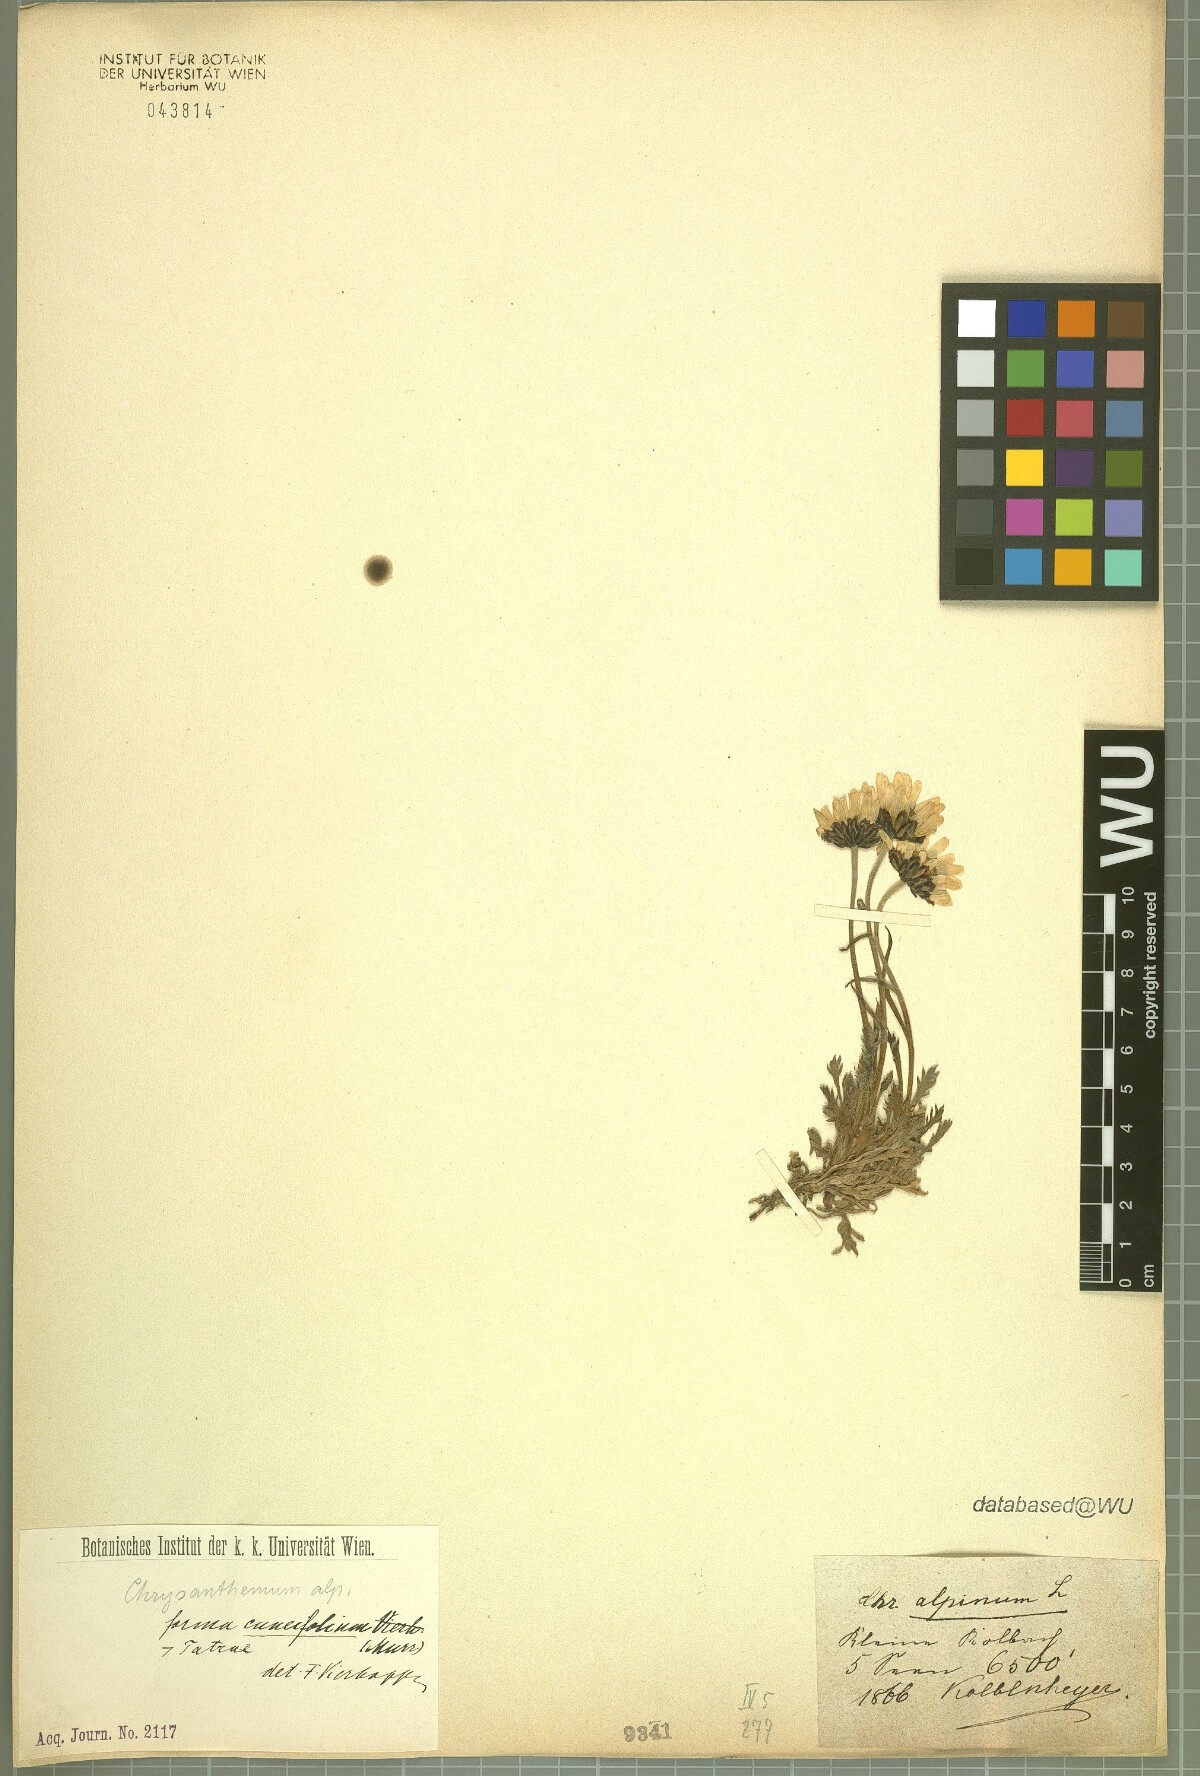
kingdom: Plantae
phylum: Tracheophyta
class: Magnoliopsida
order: Asterales
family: Asteraceae
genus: Leucanthemopsis
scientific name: Leucanthemopsis alpina
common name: Alpine moon daisy
